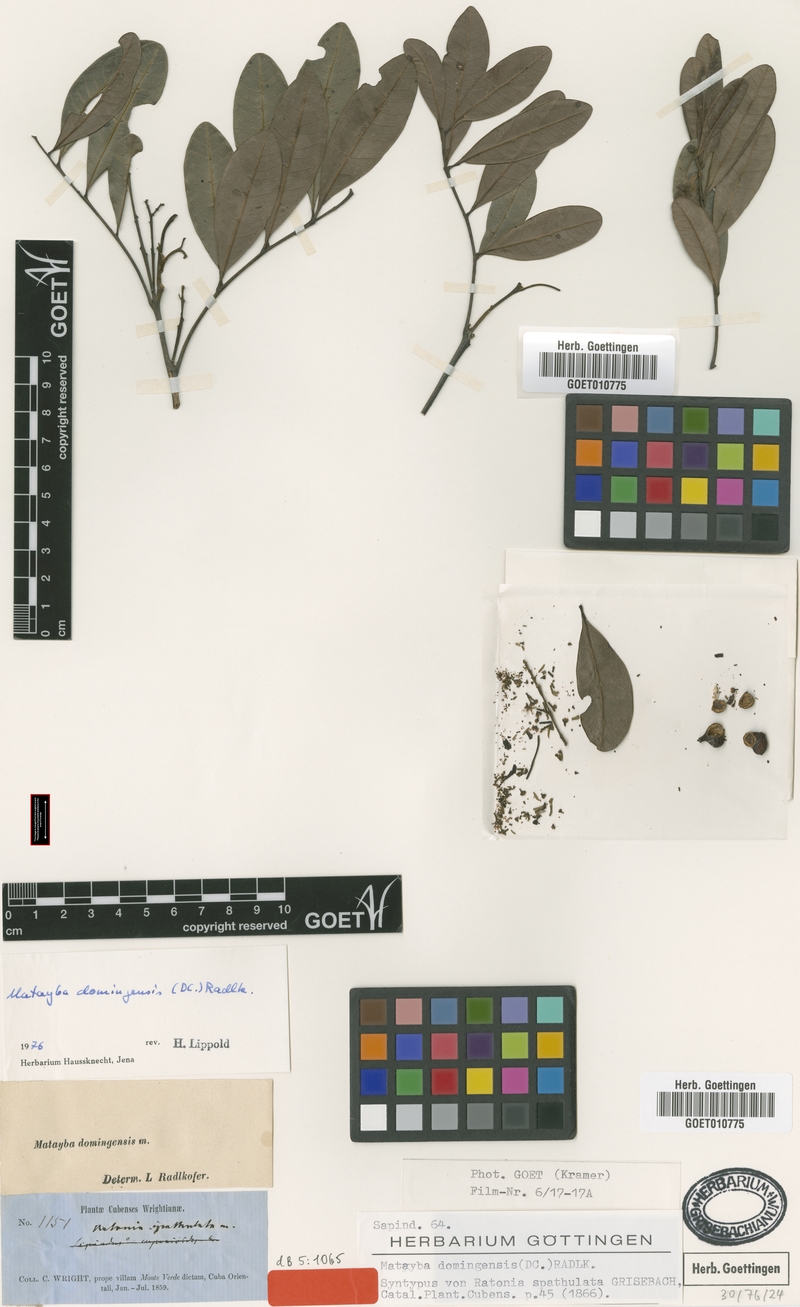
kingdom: Plantae
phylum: Tracheophyta
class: Magnoliopsida
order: Sapindales
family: Sapindaceae
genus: Matayba
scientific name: Matayba domingensis
